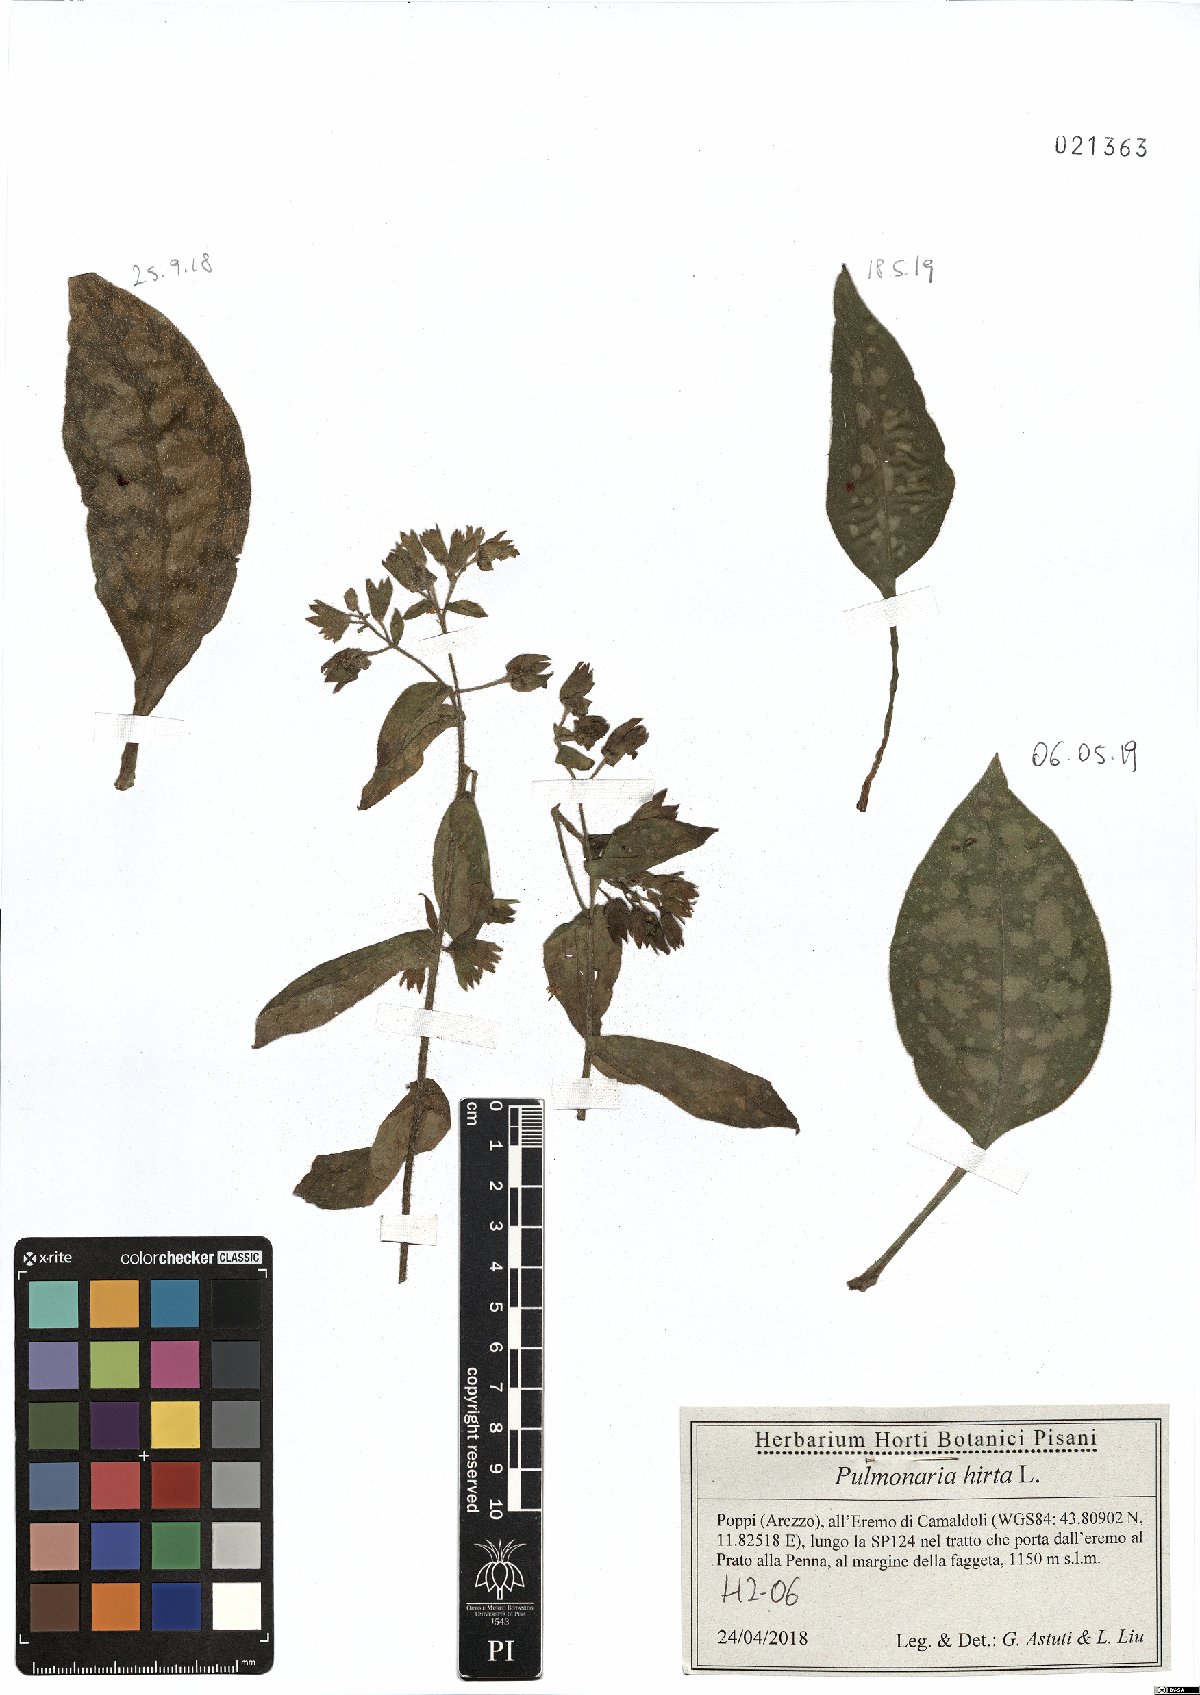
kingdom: Plantae
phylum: Tracheophyta
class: Magnoliopsida
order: Boraginales
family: Boraginaceae
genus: Pulmonaria
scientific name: Pulmonaria hirta
